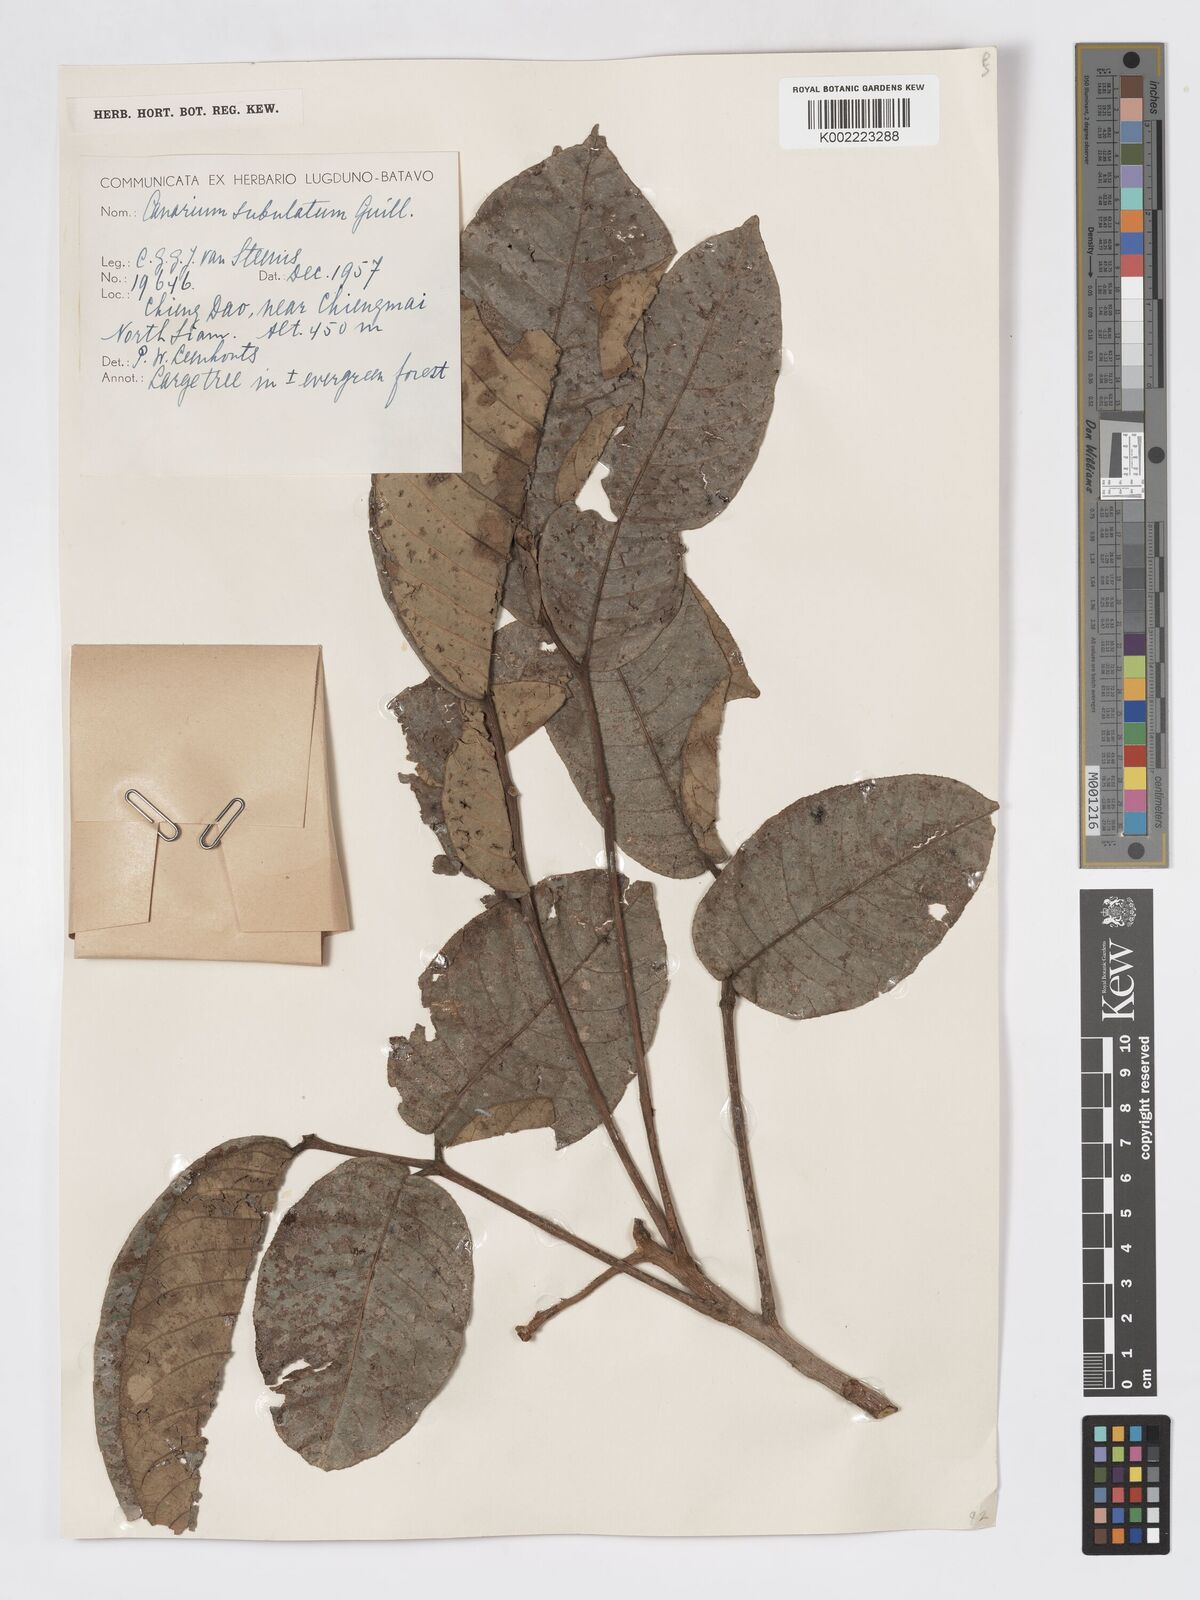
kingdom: Plantae
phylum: Tracheophyta
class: Magnoliopsida
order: Sapindales
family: Burseraceae
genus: Canarium
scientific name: Canarium subulatum
